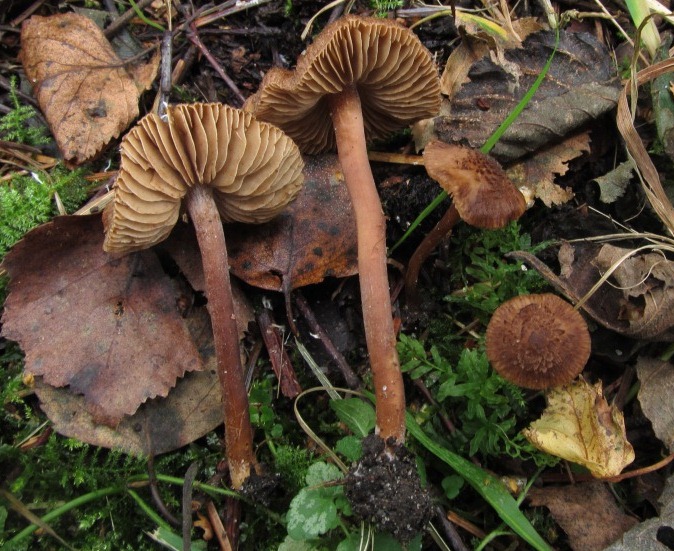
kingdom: Fungi
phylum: Basidiomycota
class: Agaricomycetes
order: Agaricales
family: Inocybaceae
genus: Inocybe
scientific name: Inocybe calospora
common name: pigsporet trævlhat
